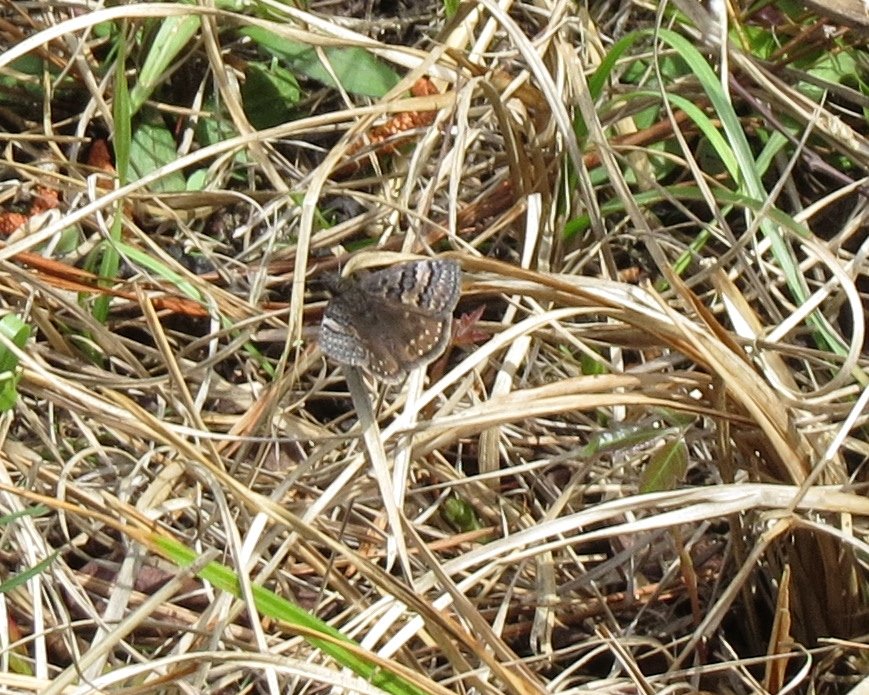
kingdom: Animalia
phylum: Arthropoda
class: Insecta
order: Lepidoptera
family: Hesperiidae
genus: Erynnis
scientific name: Erynnis brizo
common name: Sleepy Duskywing
